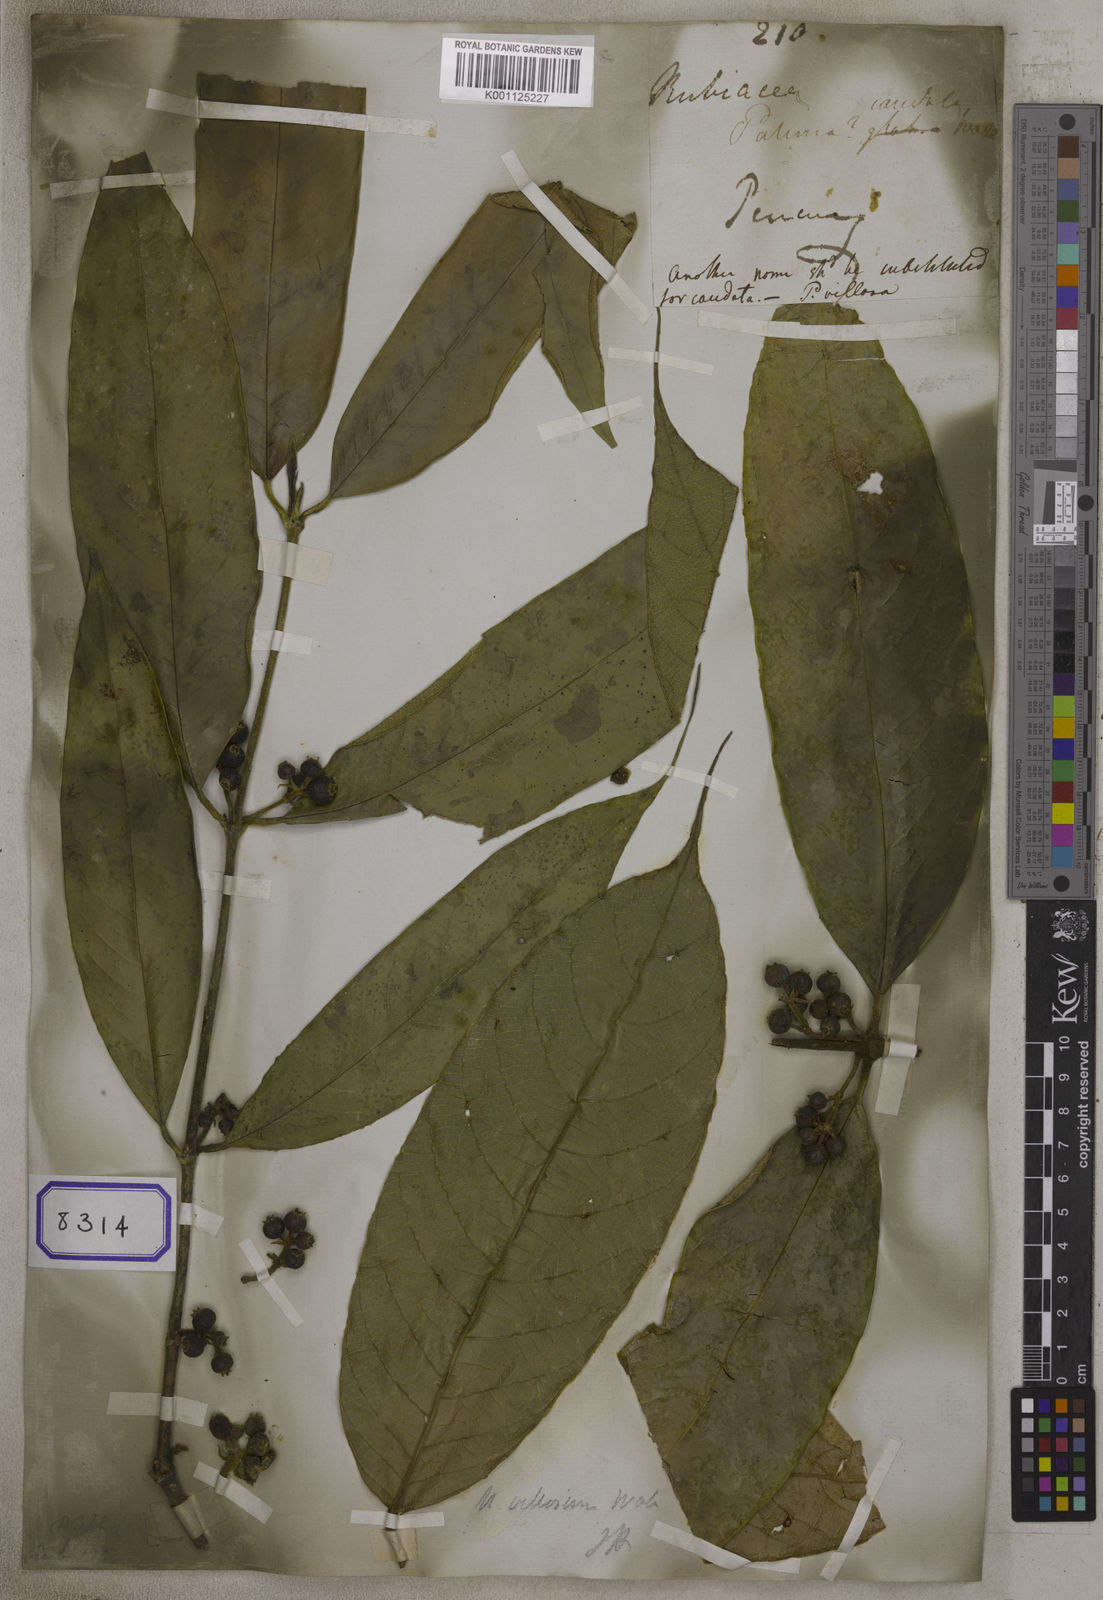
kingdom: Plantae
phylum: Tracheophyta
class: Magnoliopsida
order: Gentianales
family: Rubiaceae
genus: Urophyllum
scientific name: Urophyllum villosum
